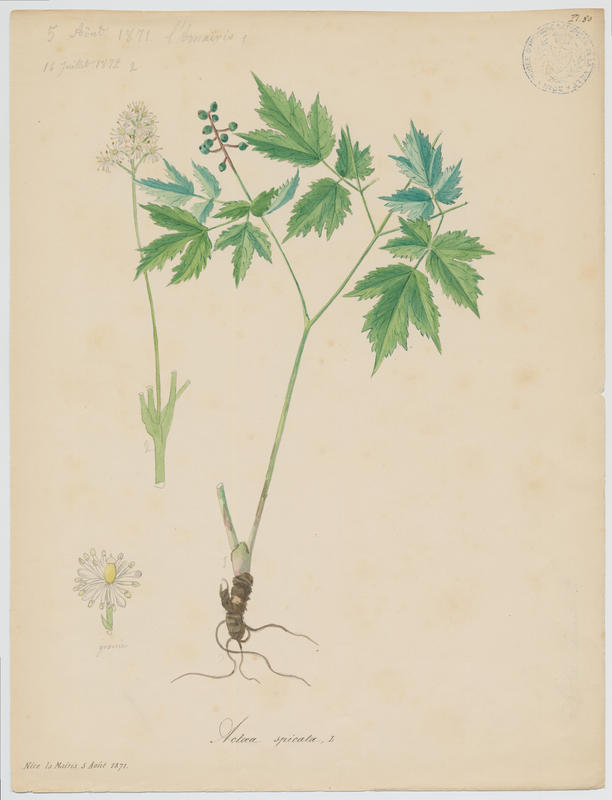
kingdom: Plantae
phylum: Tracheophyta
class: Magnoliopsida
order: Ranunculales
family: Ranunculaceae
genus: Actaea
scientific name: Actaea spicata
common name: Baneberry
